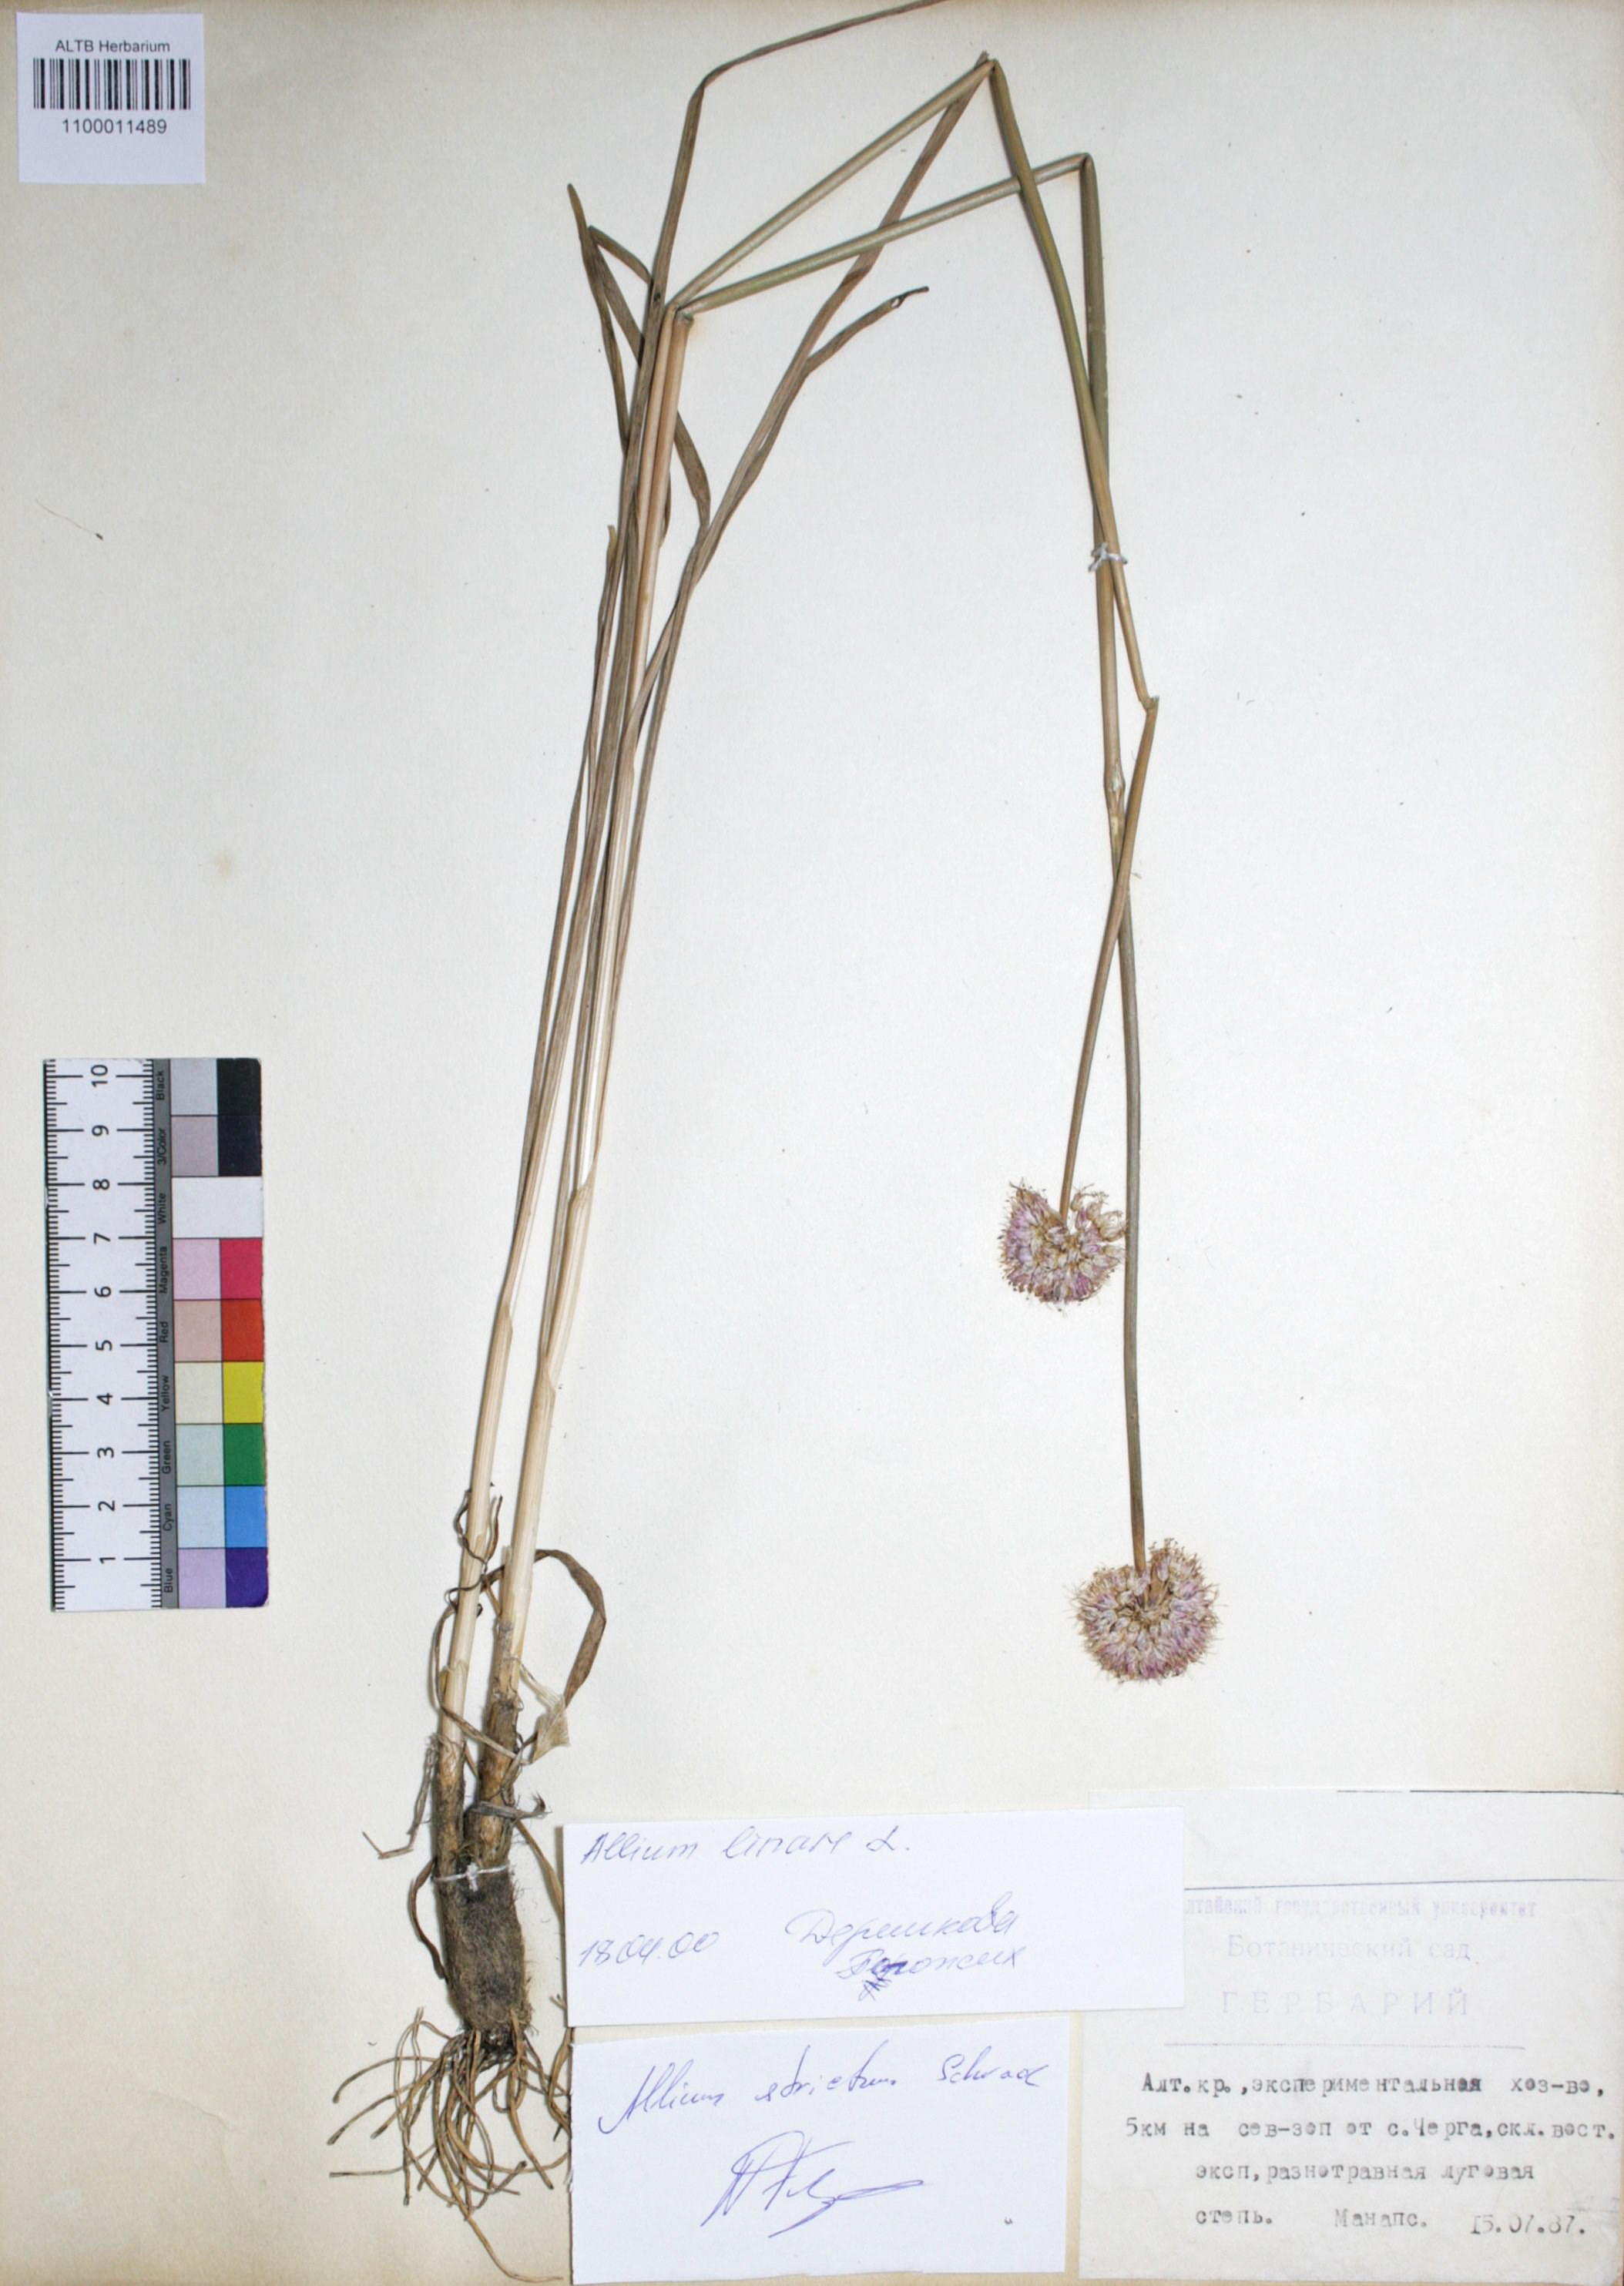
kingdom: Plantae
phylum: Tracheophyta
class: Liliopsida
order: Asparagales
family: Amaryllidaceae
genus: Allium
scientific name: Allium strictum
